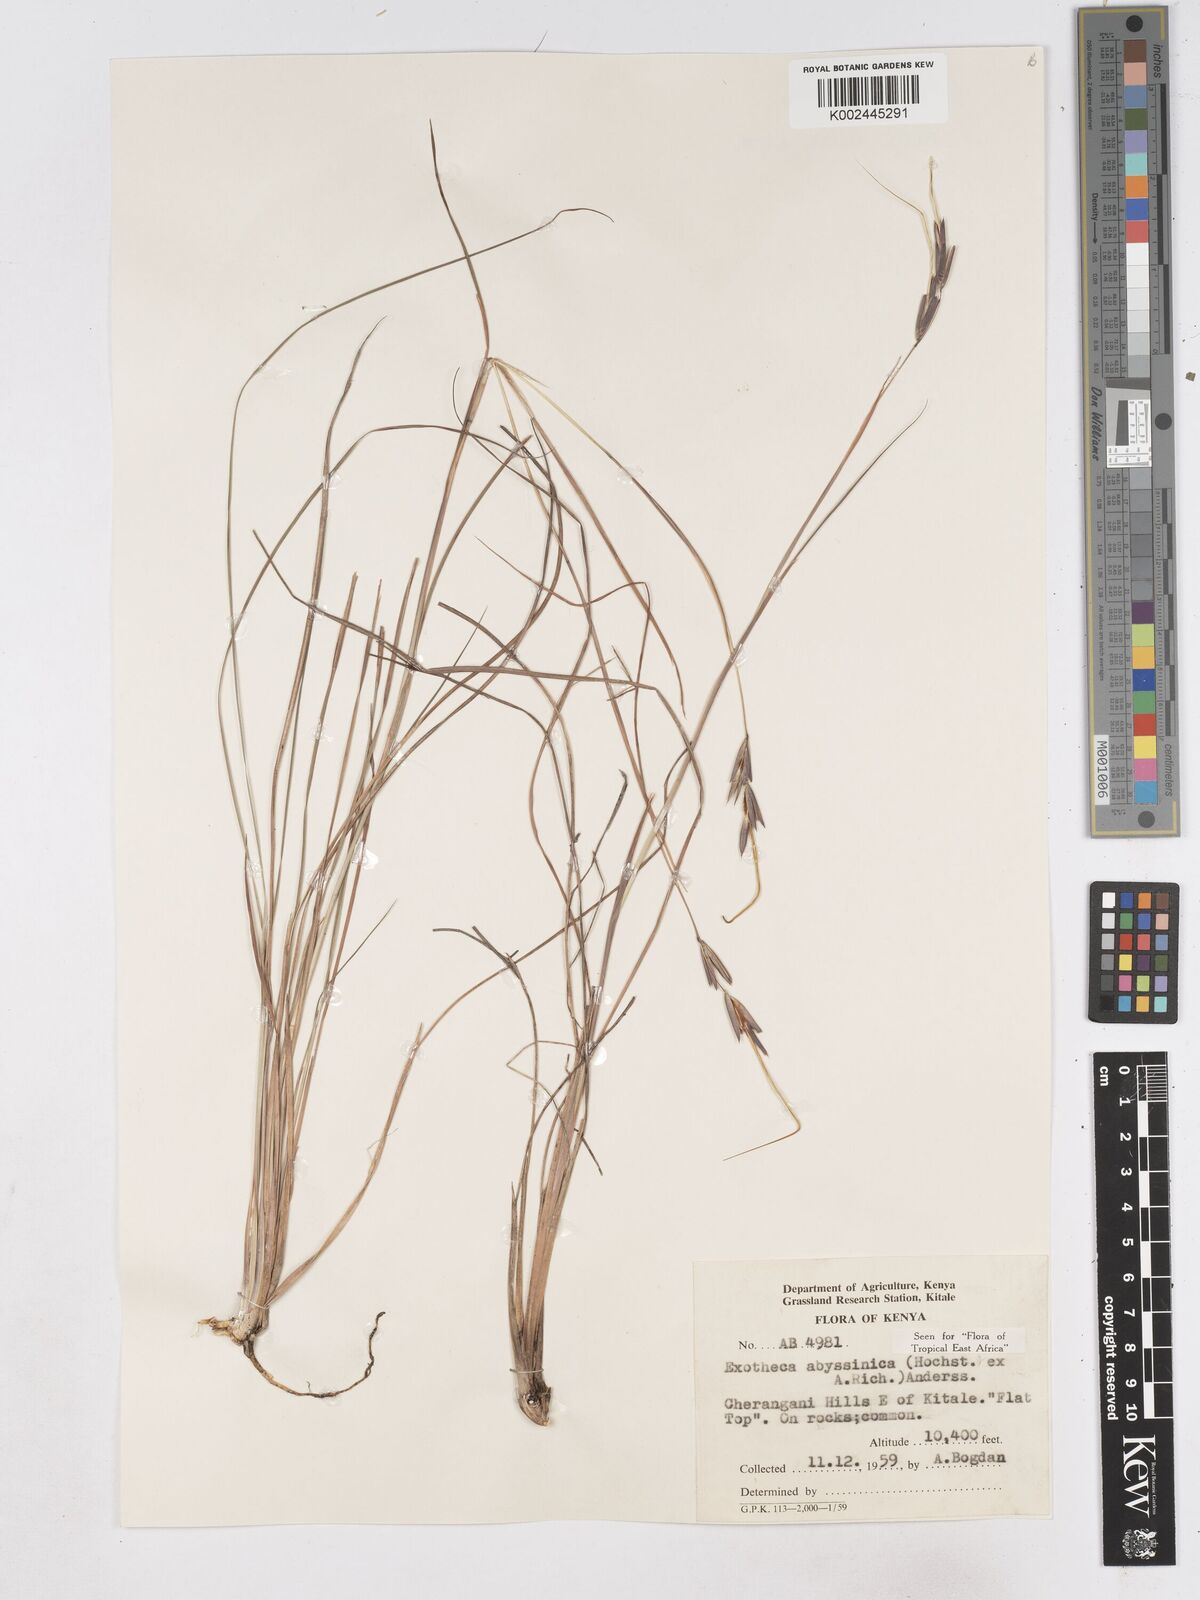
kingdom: Plantae
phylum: Tracheophyta
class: Liliopsida
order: Poales
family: Poaceae
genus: Exotheca
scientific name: Exotheca abyssinica
